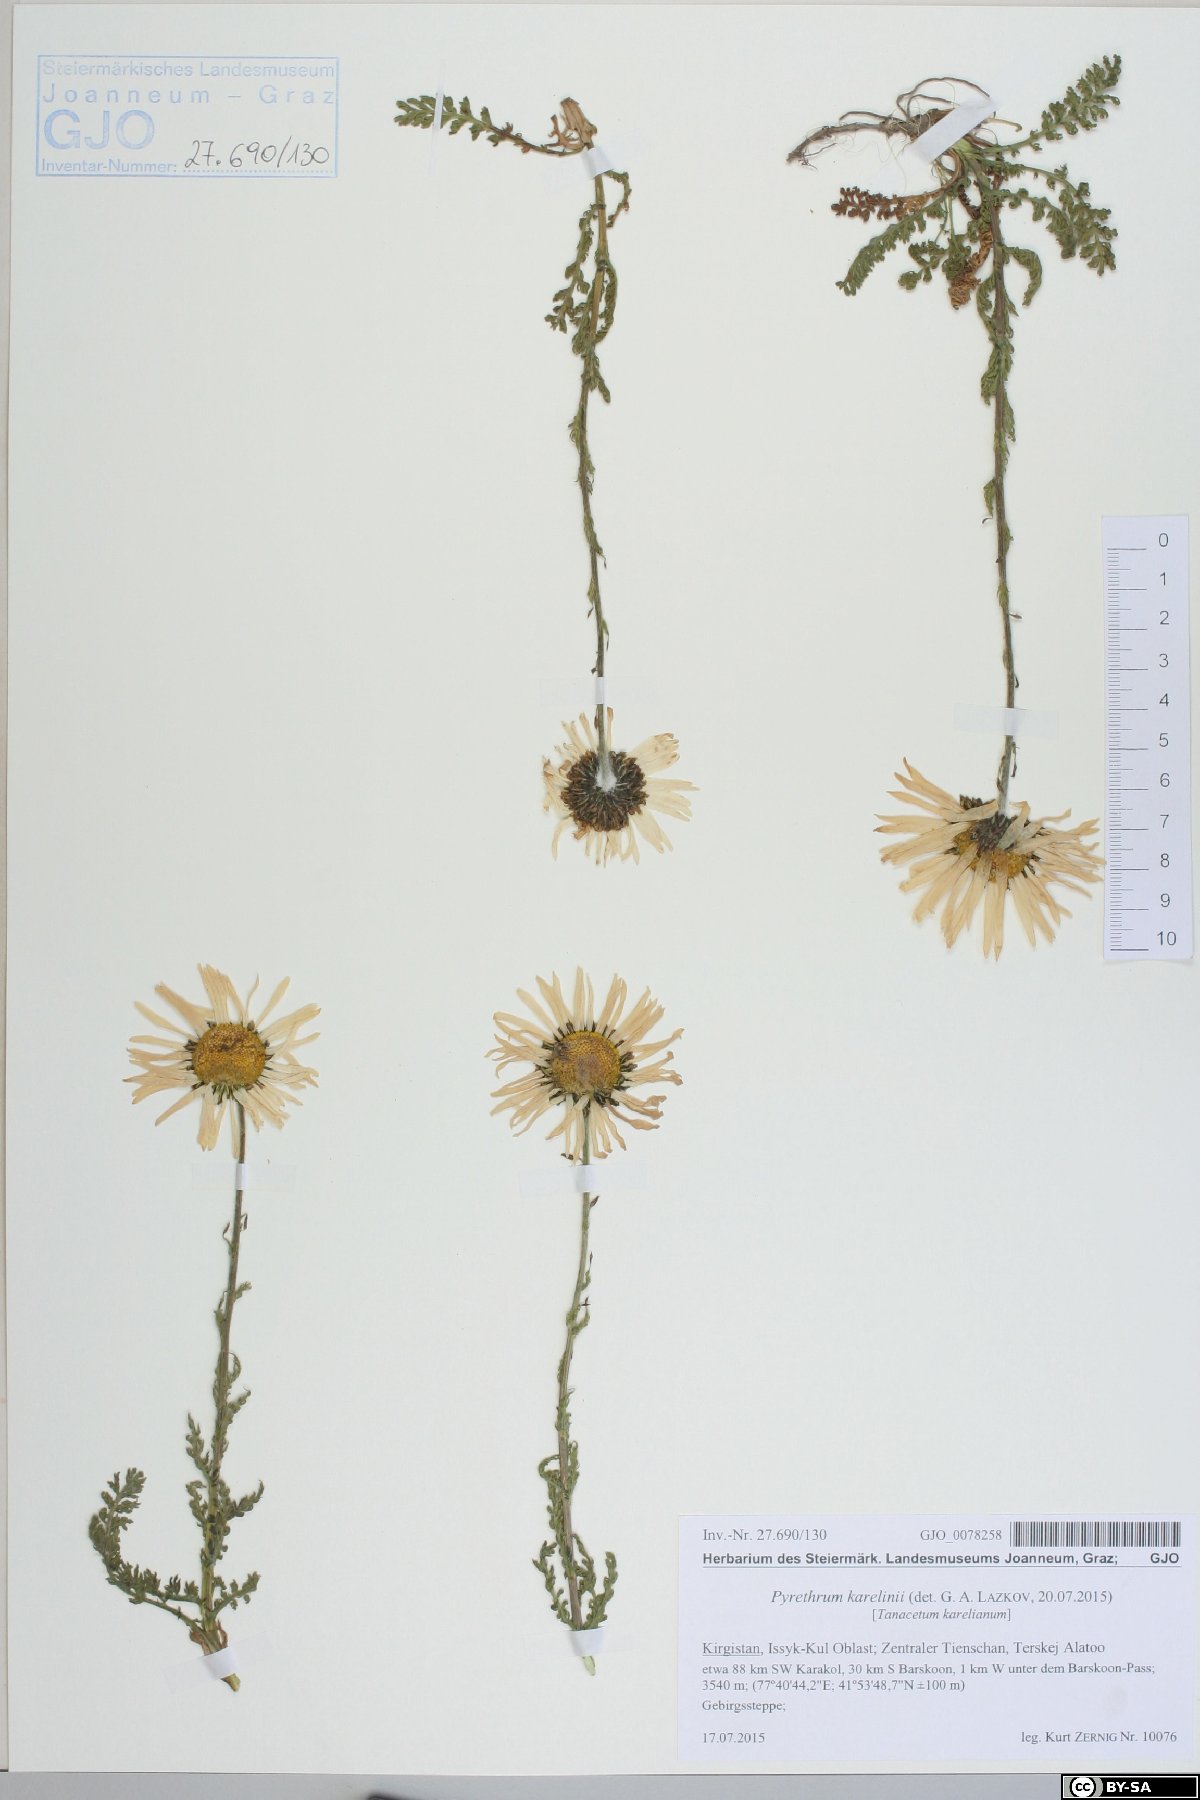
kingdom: Plantae
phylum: Tracheophyta
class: Magnoliopsida
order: Asterales
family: Asteraceae
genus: Tanacetum
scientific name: Tanacetum richterioides
